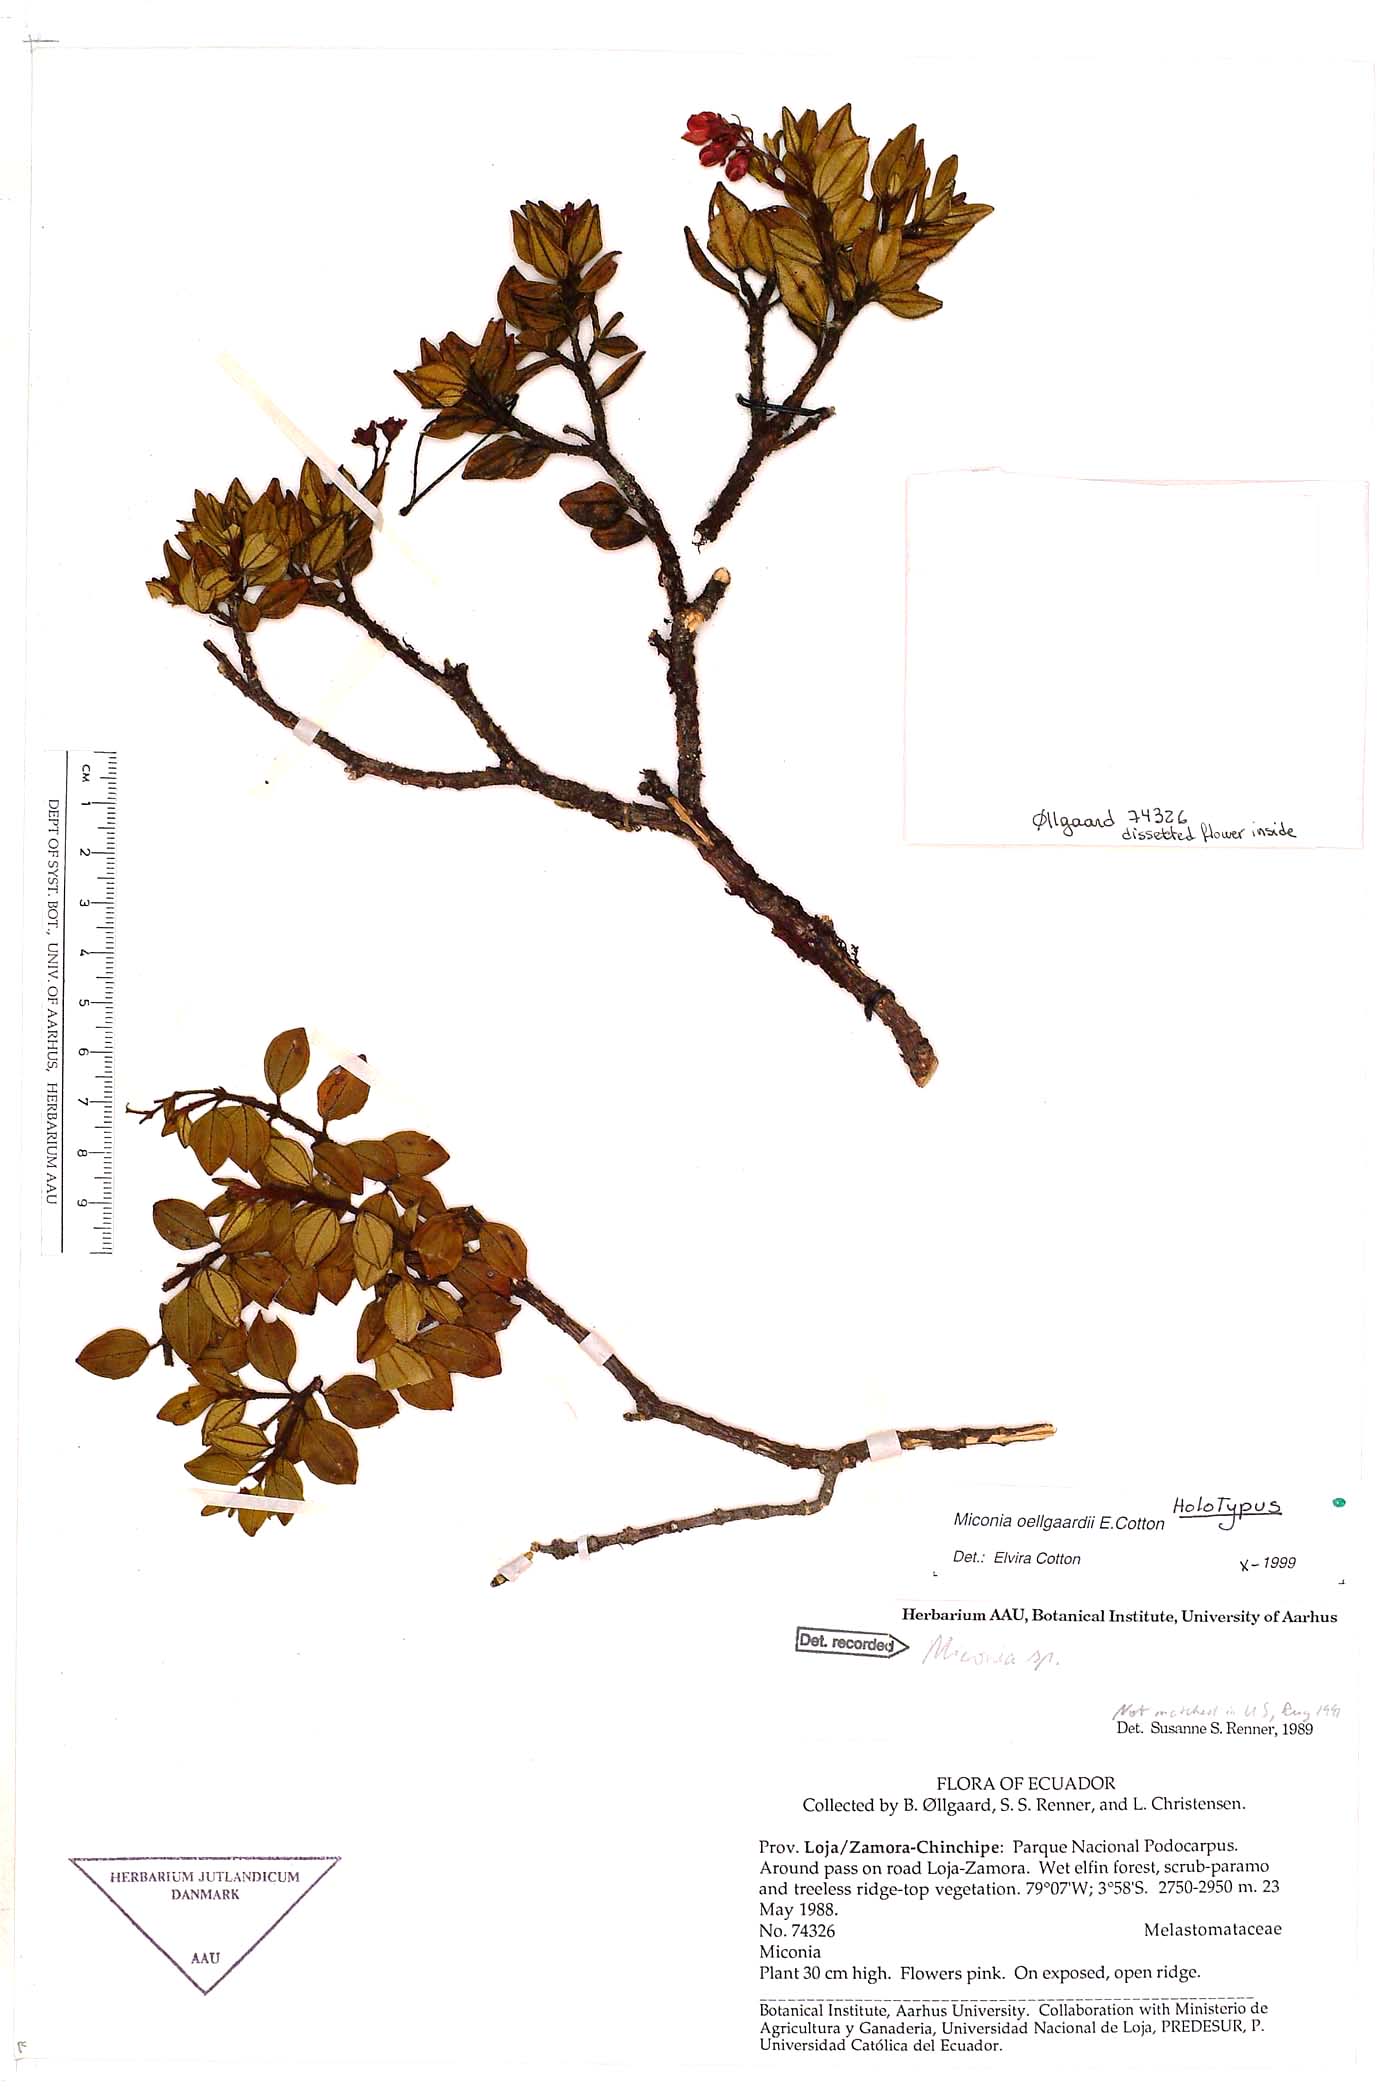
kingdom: Plantae
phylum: Tracheophyta
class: Magnoliopsida
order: Myrtales
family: Melastomataceae
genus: Miconia
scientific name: Miconia oellgaardii
